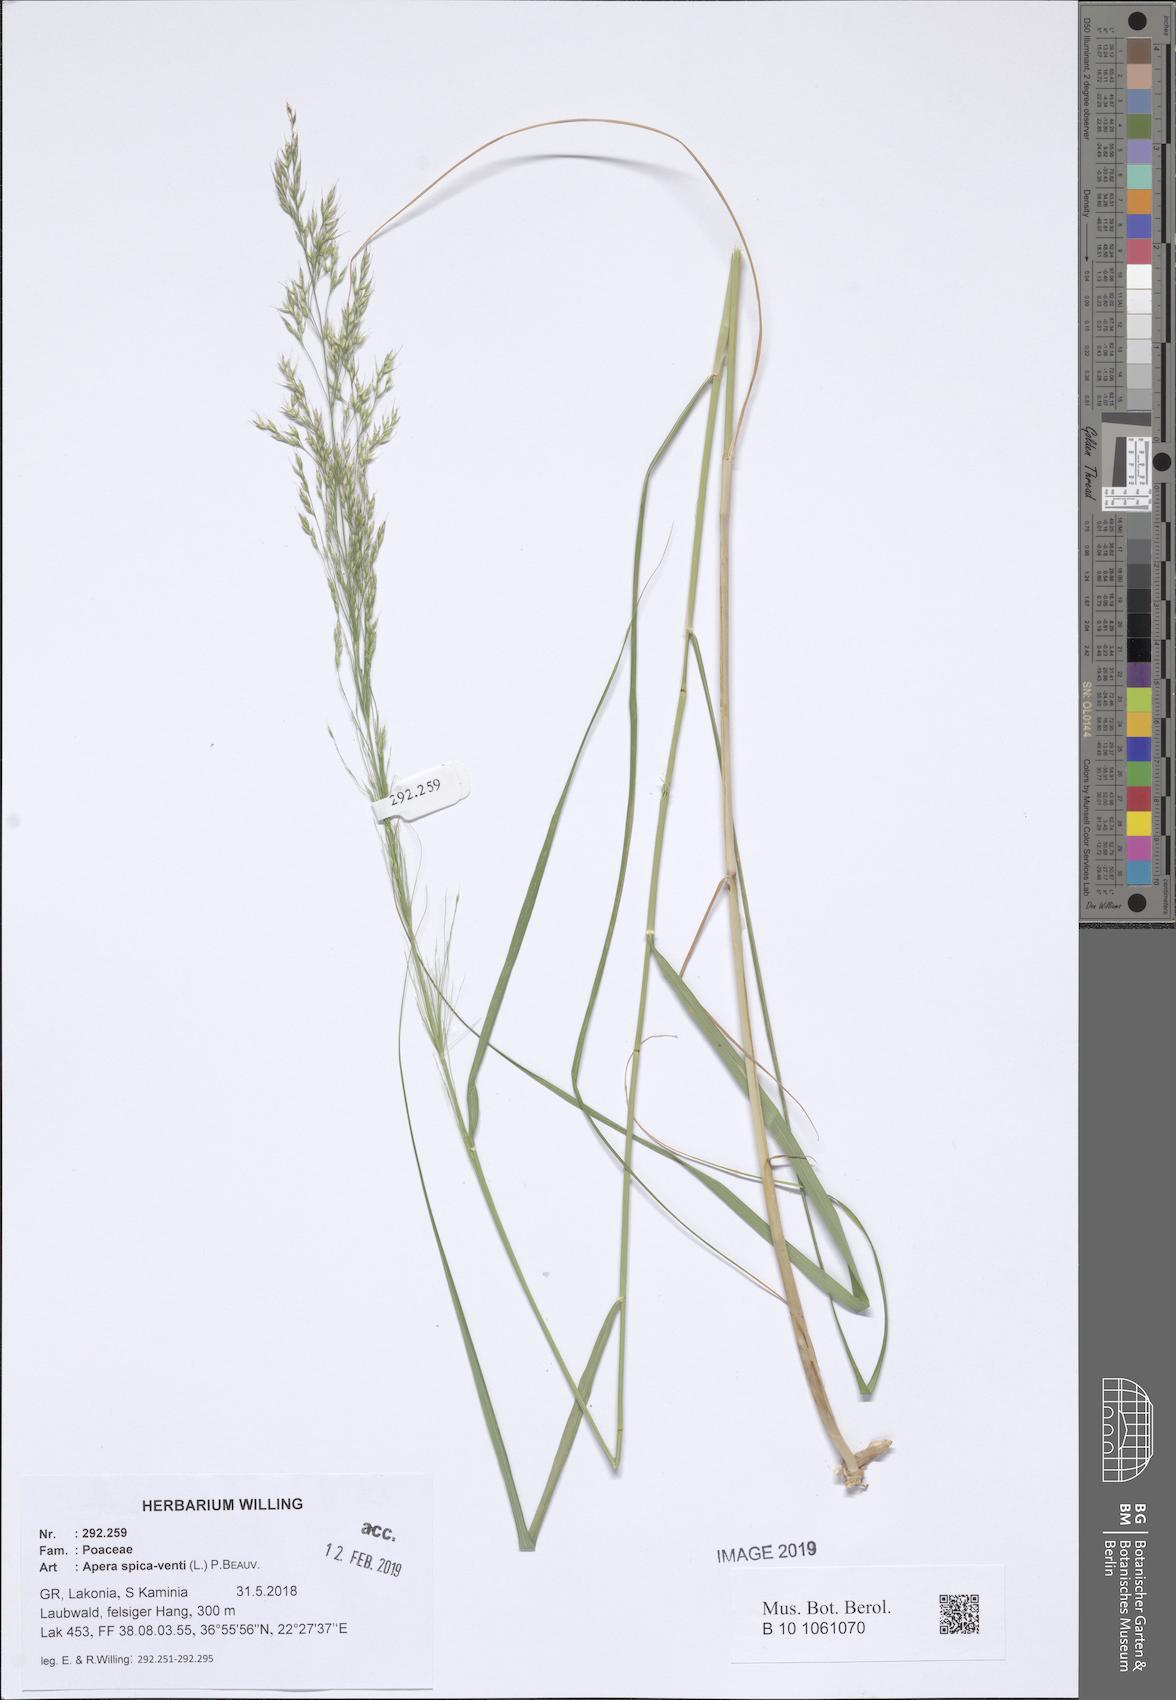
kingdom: Plantae
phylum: Tracheophyta
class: Liliopsida
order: Poales
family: Poaceae
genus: Apera
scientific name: Apera spica-venti
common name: Loose silky-bent
